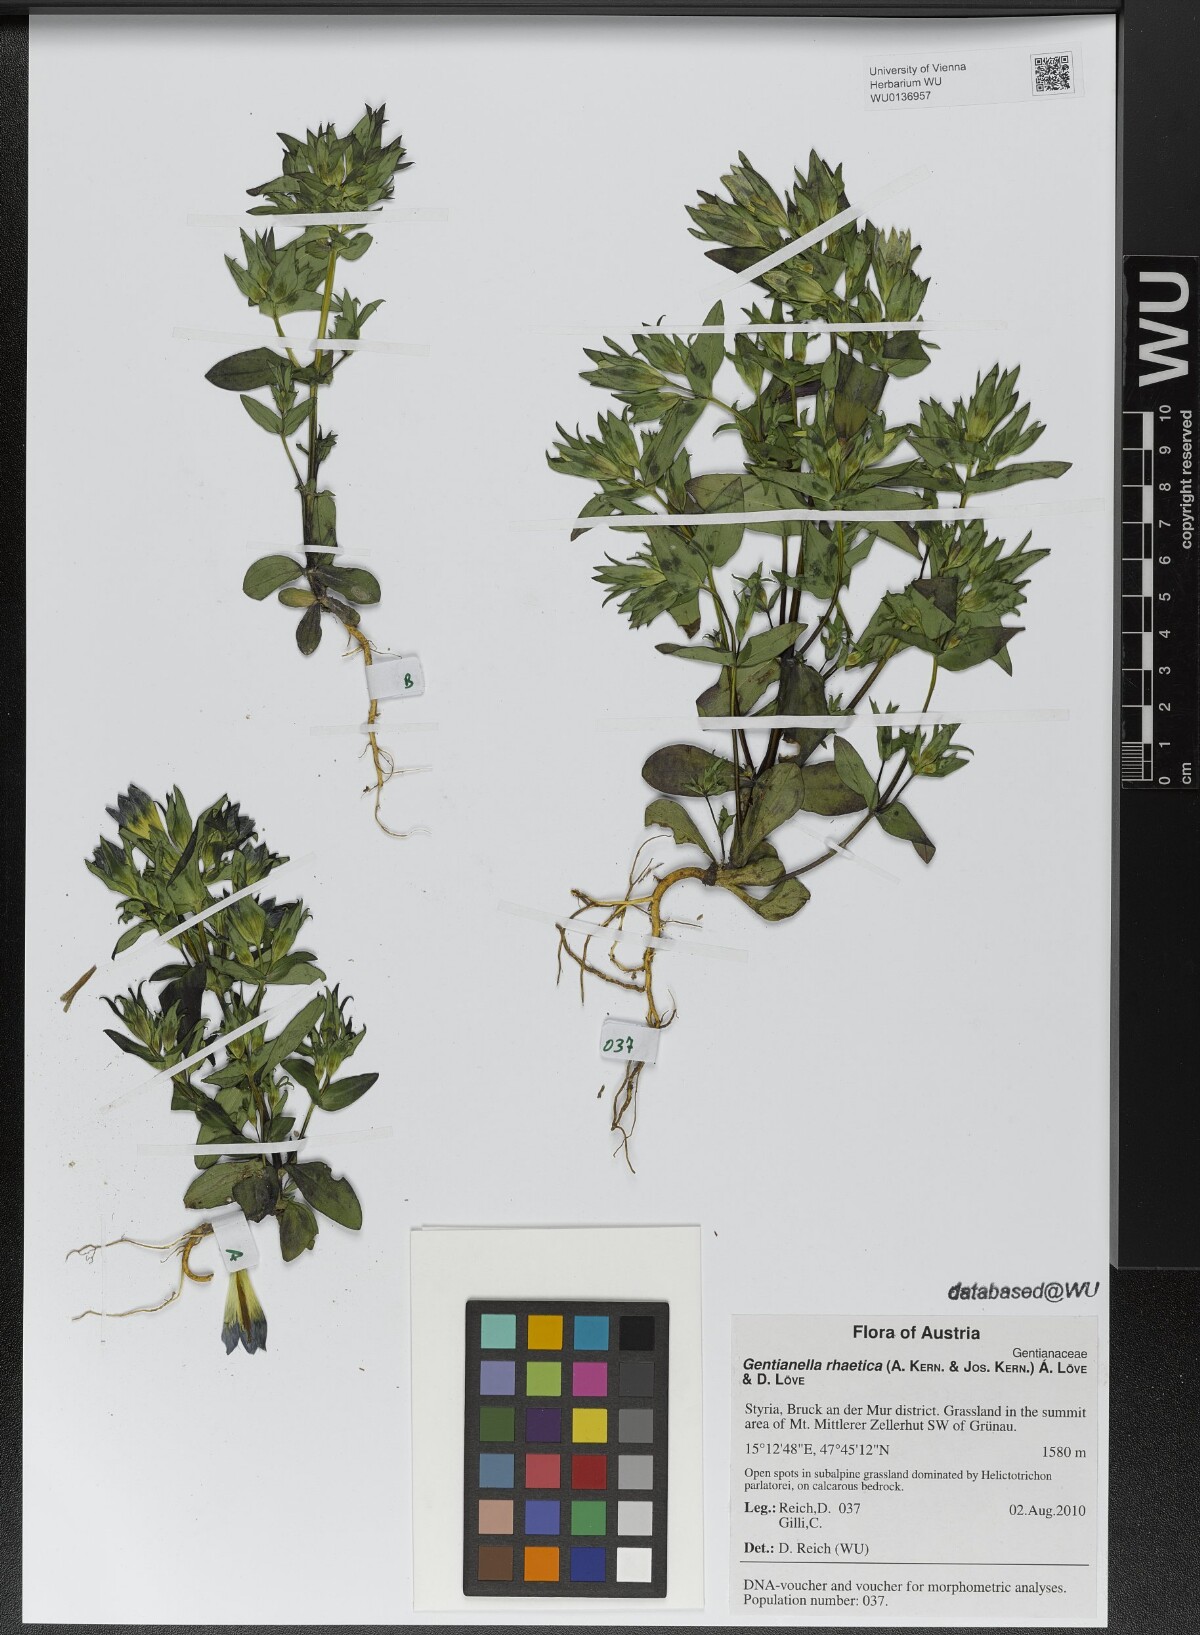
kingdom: Plantae
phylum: Tracheophyta
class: Magnoliopsida
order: Gentianales
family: Gentianaceae
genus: Gentianella
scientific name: Gentianella rhaetica
